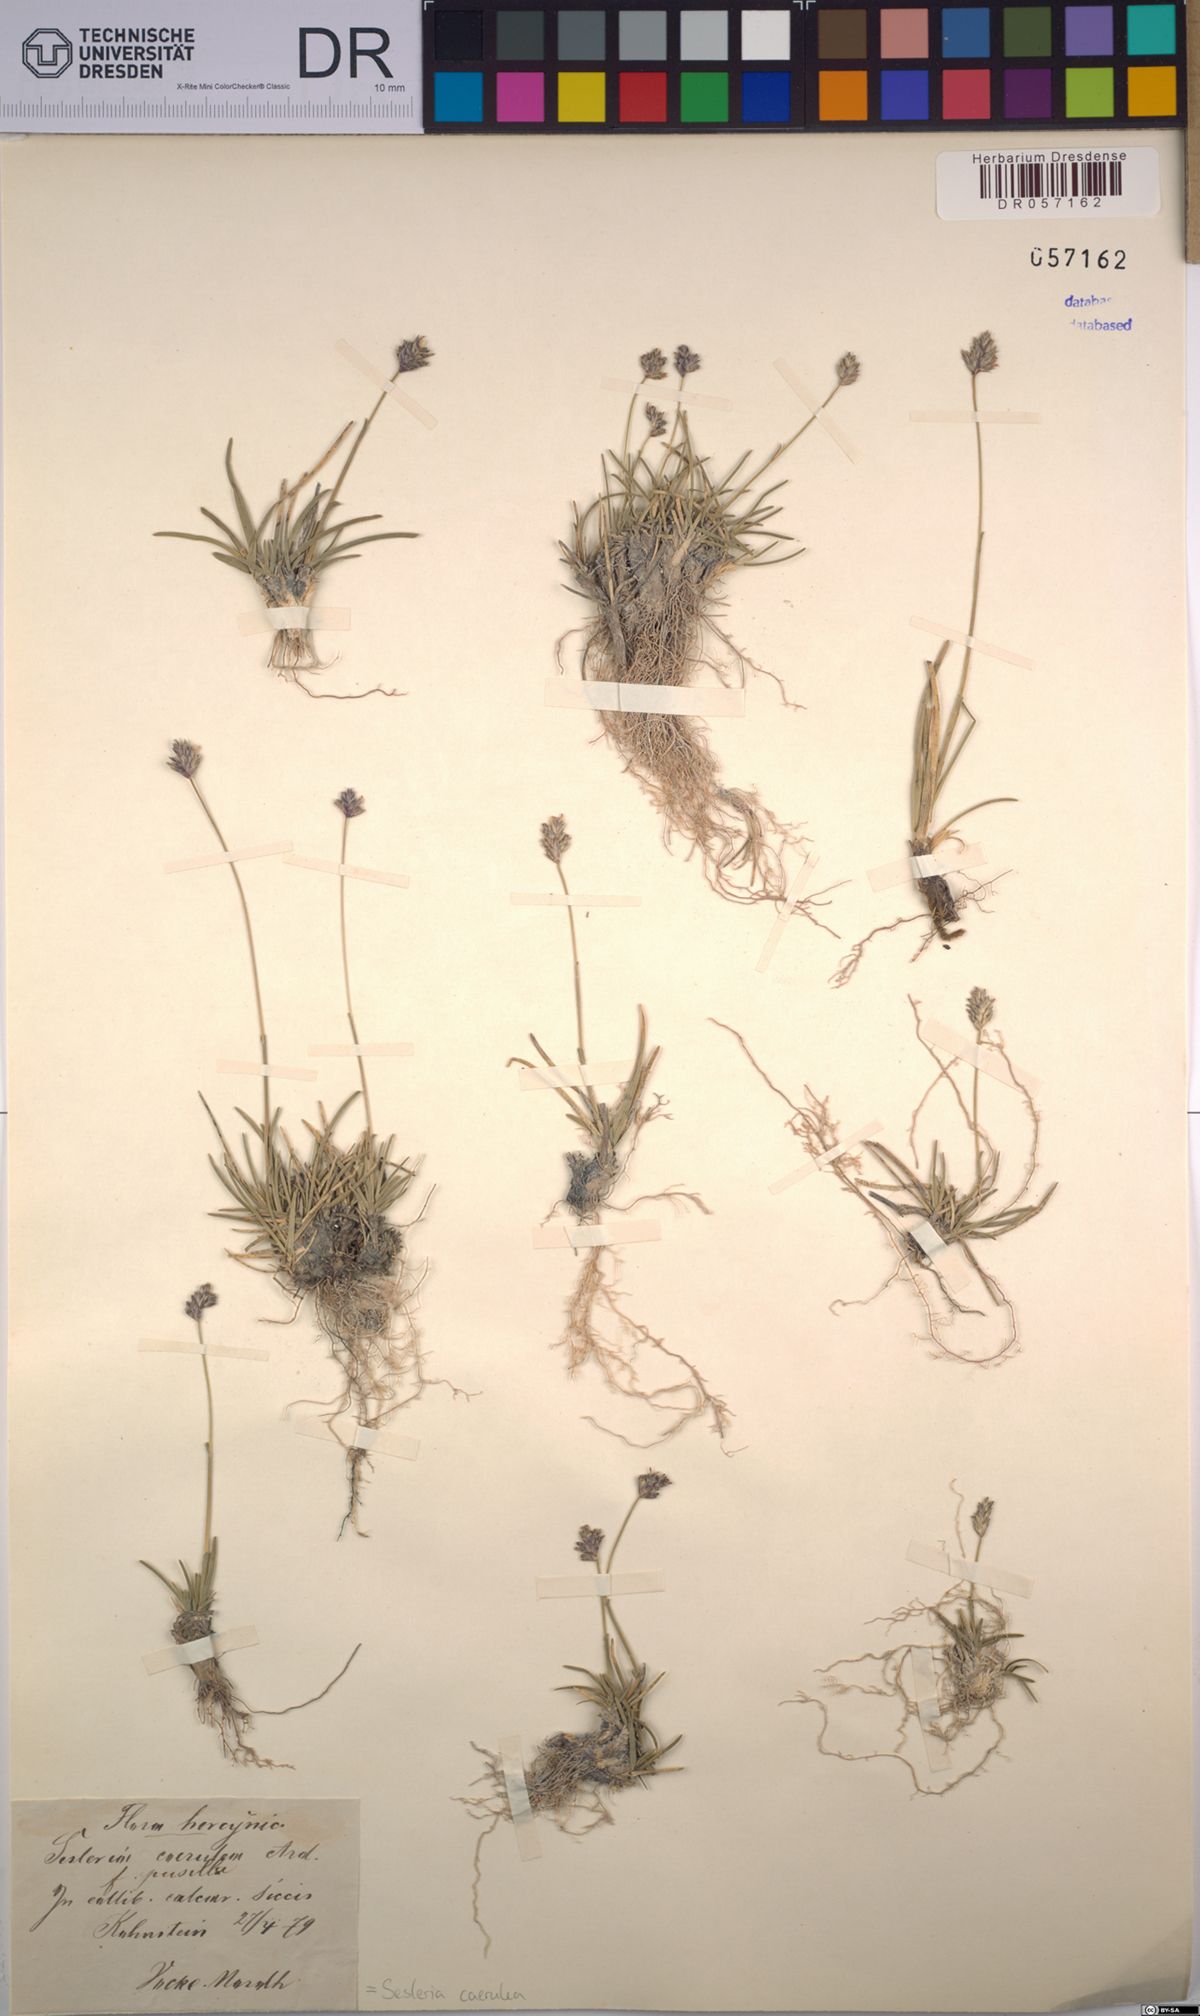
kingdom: Plantae
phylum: Tracheophyta
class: Liliopsida
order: Poales
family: Poaceae
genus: Sesleria
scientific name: Sesleria caerulea
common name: Blue moor-grass
